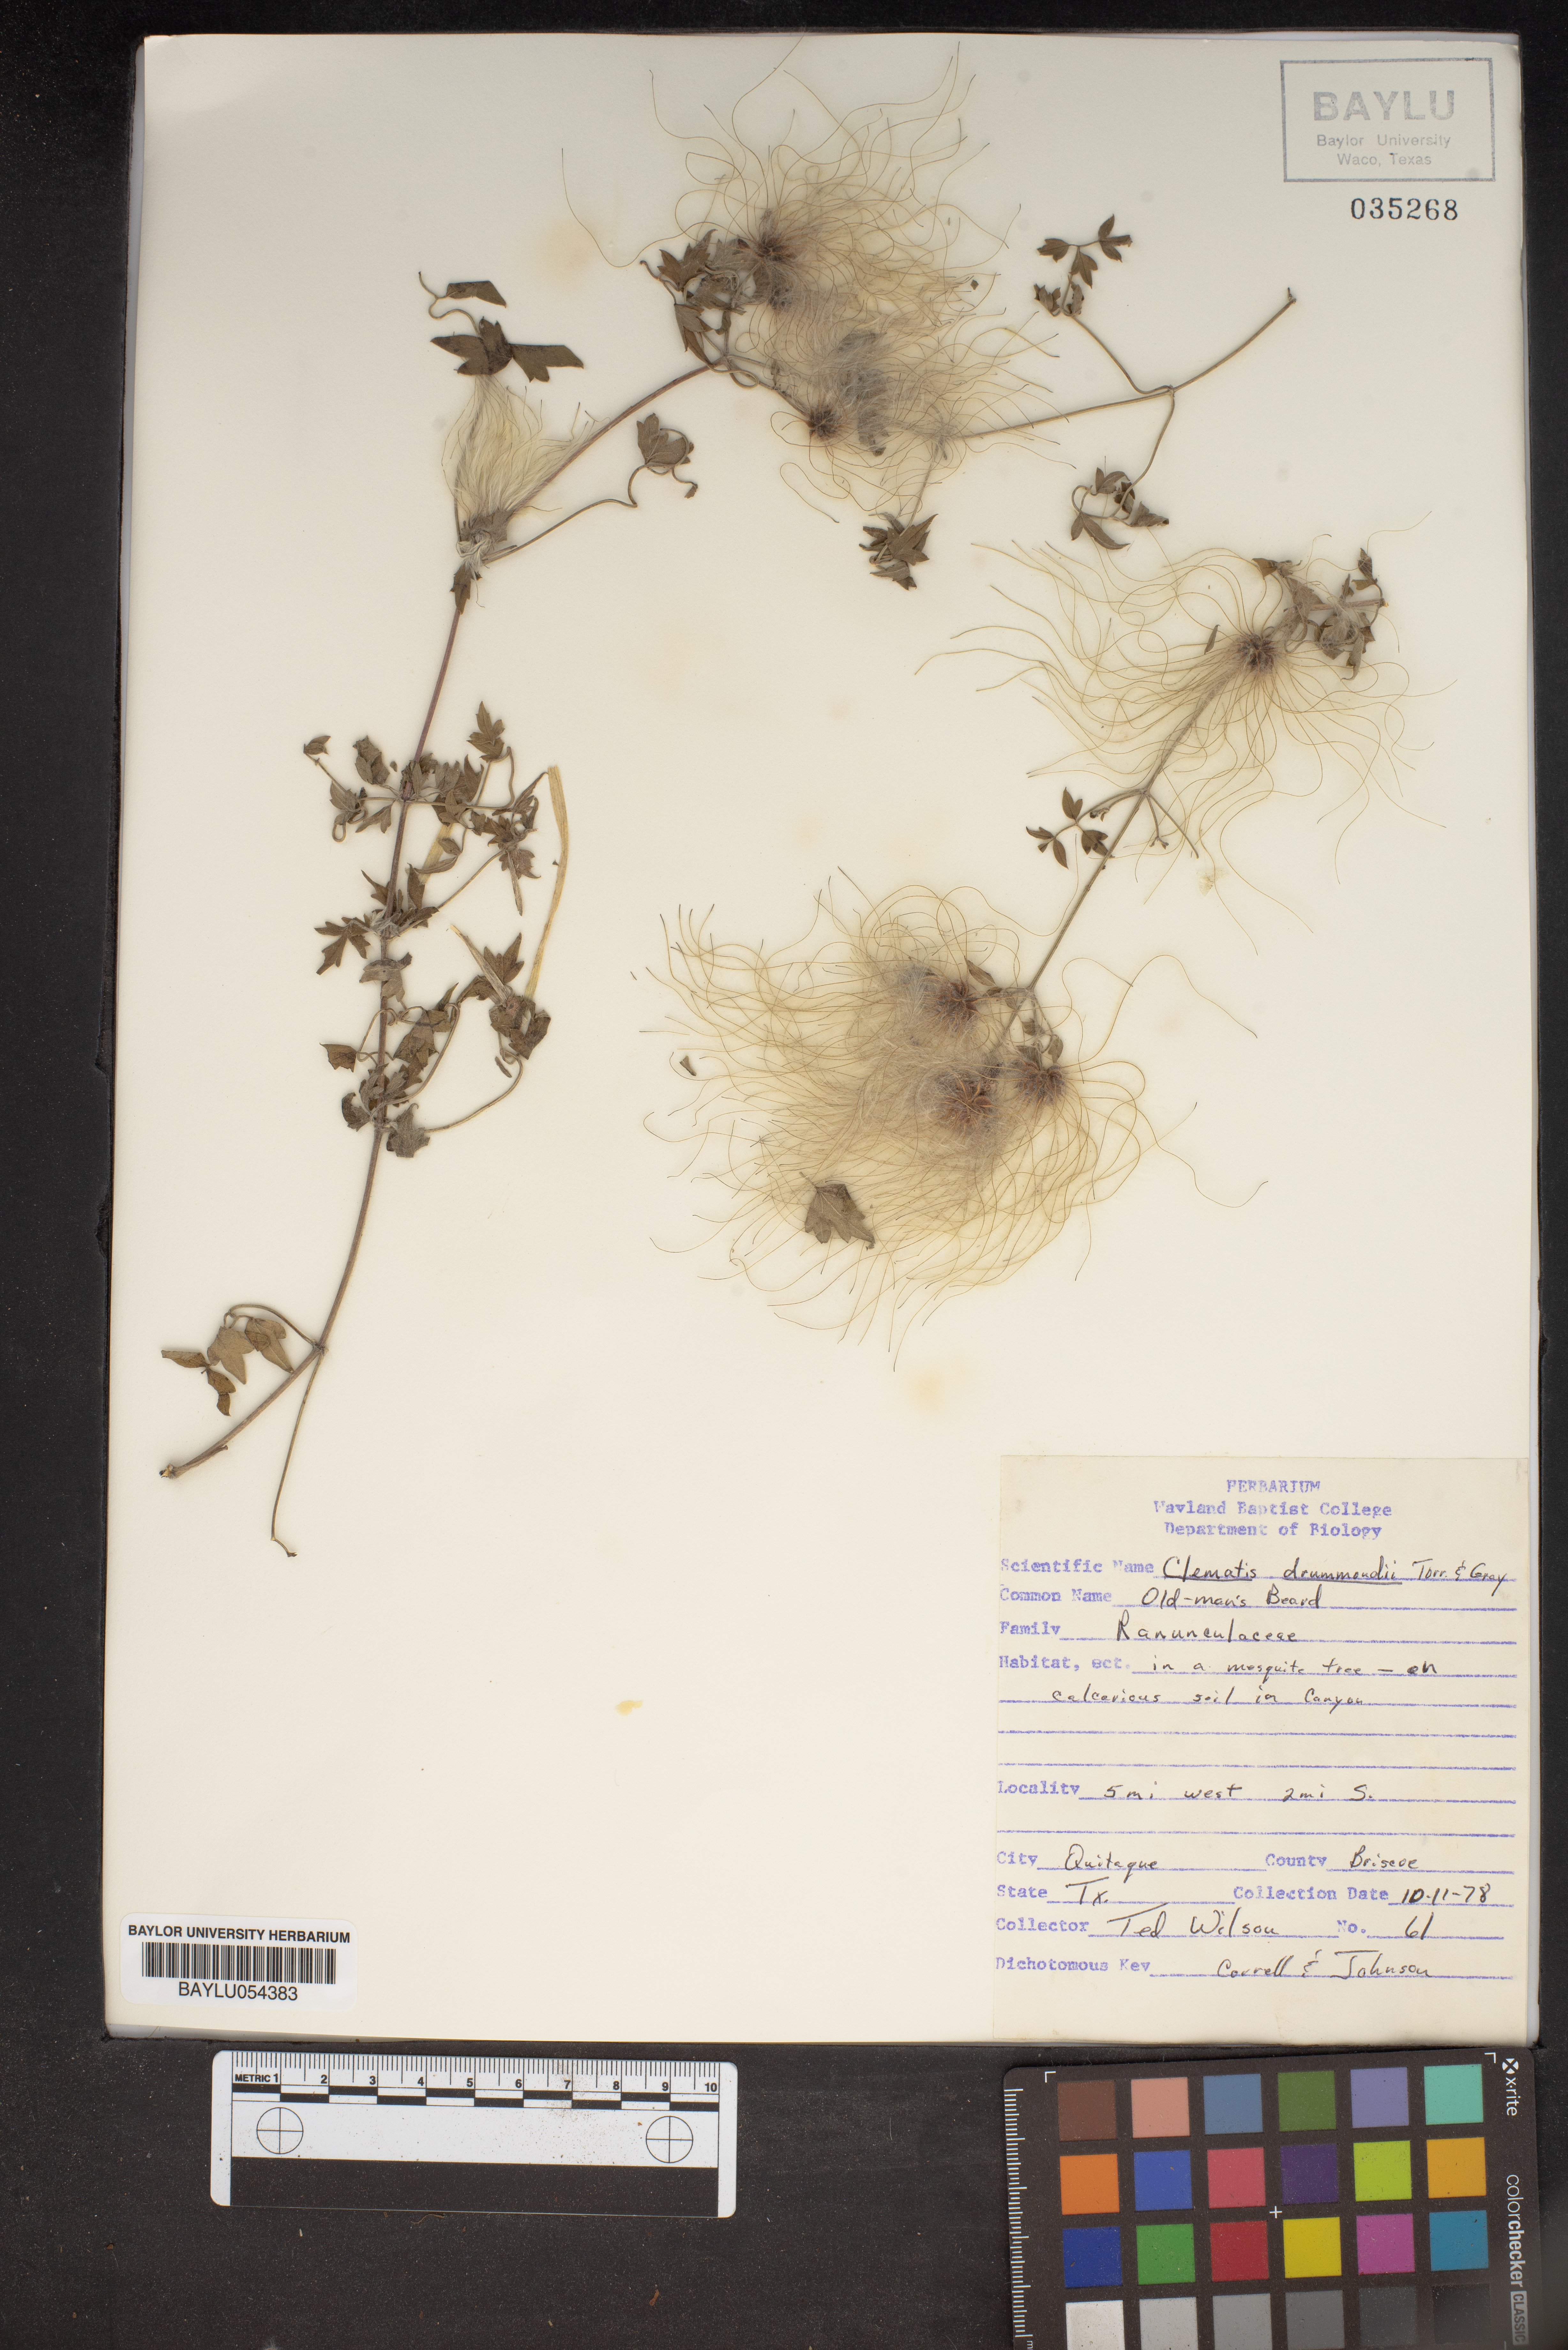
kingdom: Plantae
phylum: Tracheophyta
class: Magnoliopsida
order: Ranunculales
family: Ranunculaceae
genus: Clematis
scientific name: Clematis drummondii
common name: Texas virgin's bower
